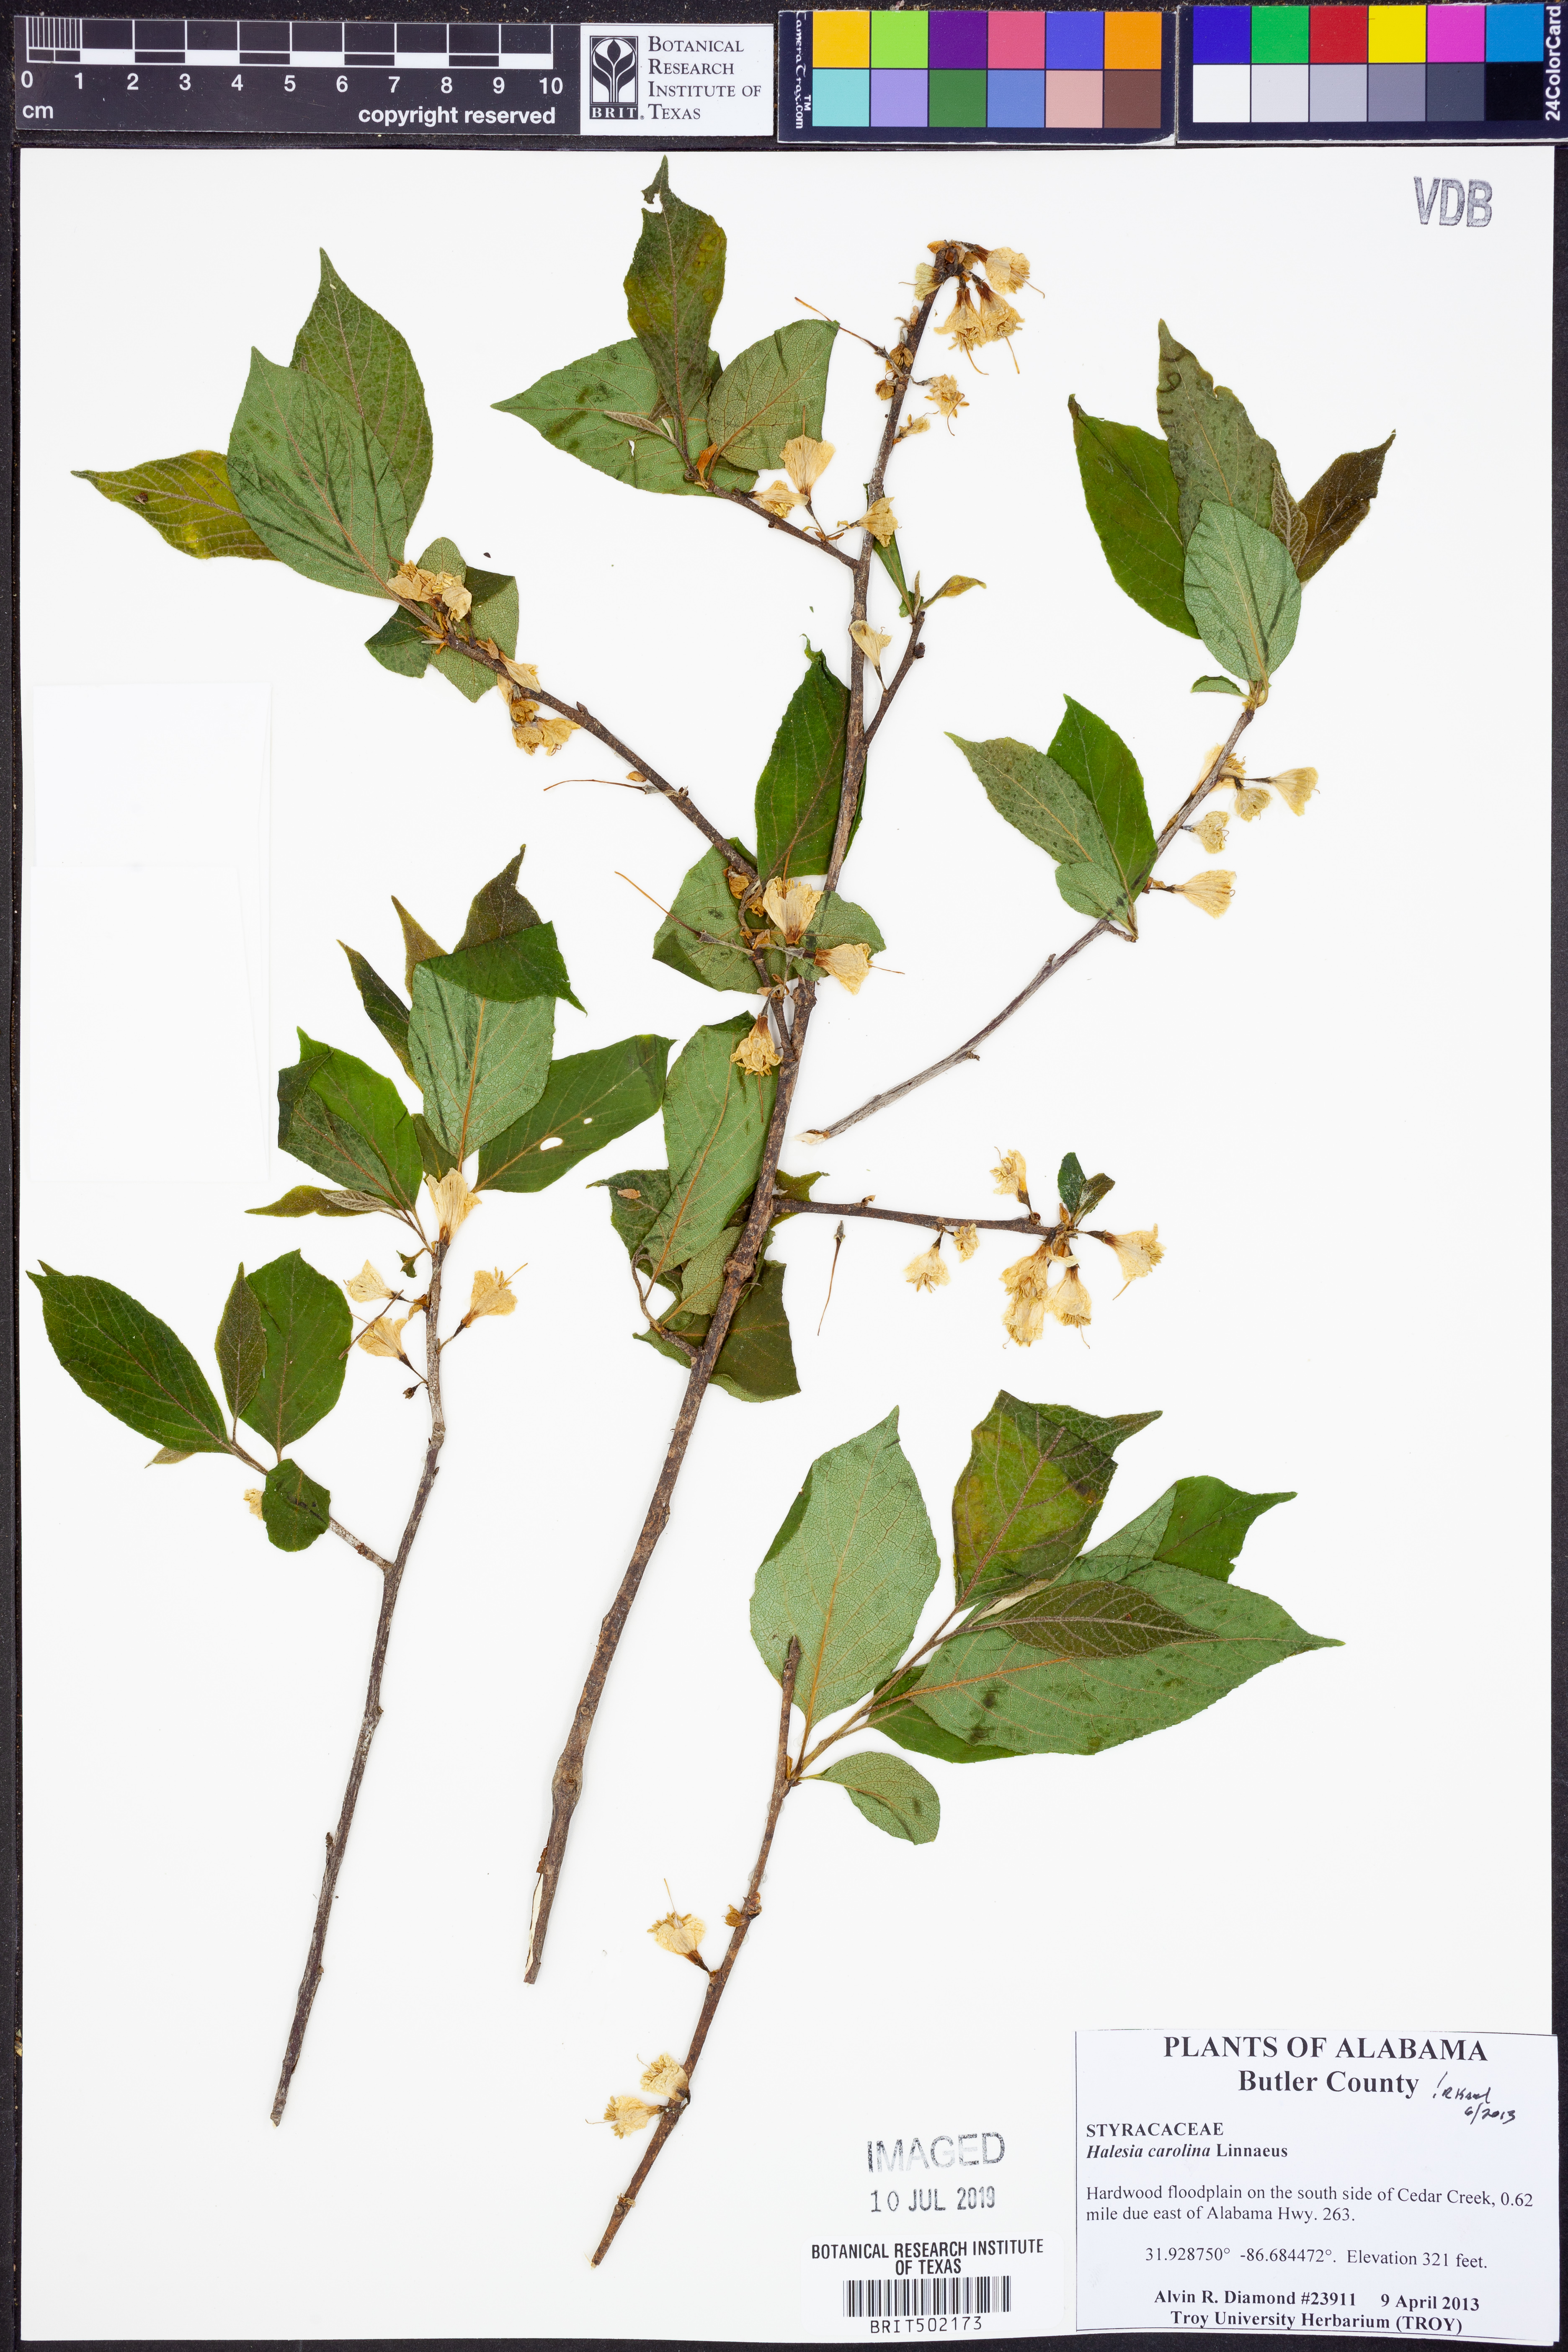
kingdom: Plantae
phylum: Tracheophyta
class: Magnoliopsida
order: Ericales
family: Styracaceae
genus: Halesia
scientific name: Halesia carolina
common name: Carolina silverbell
